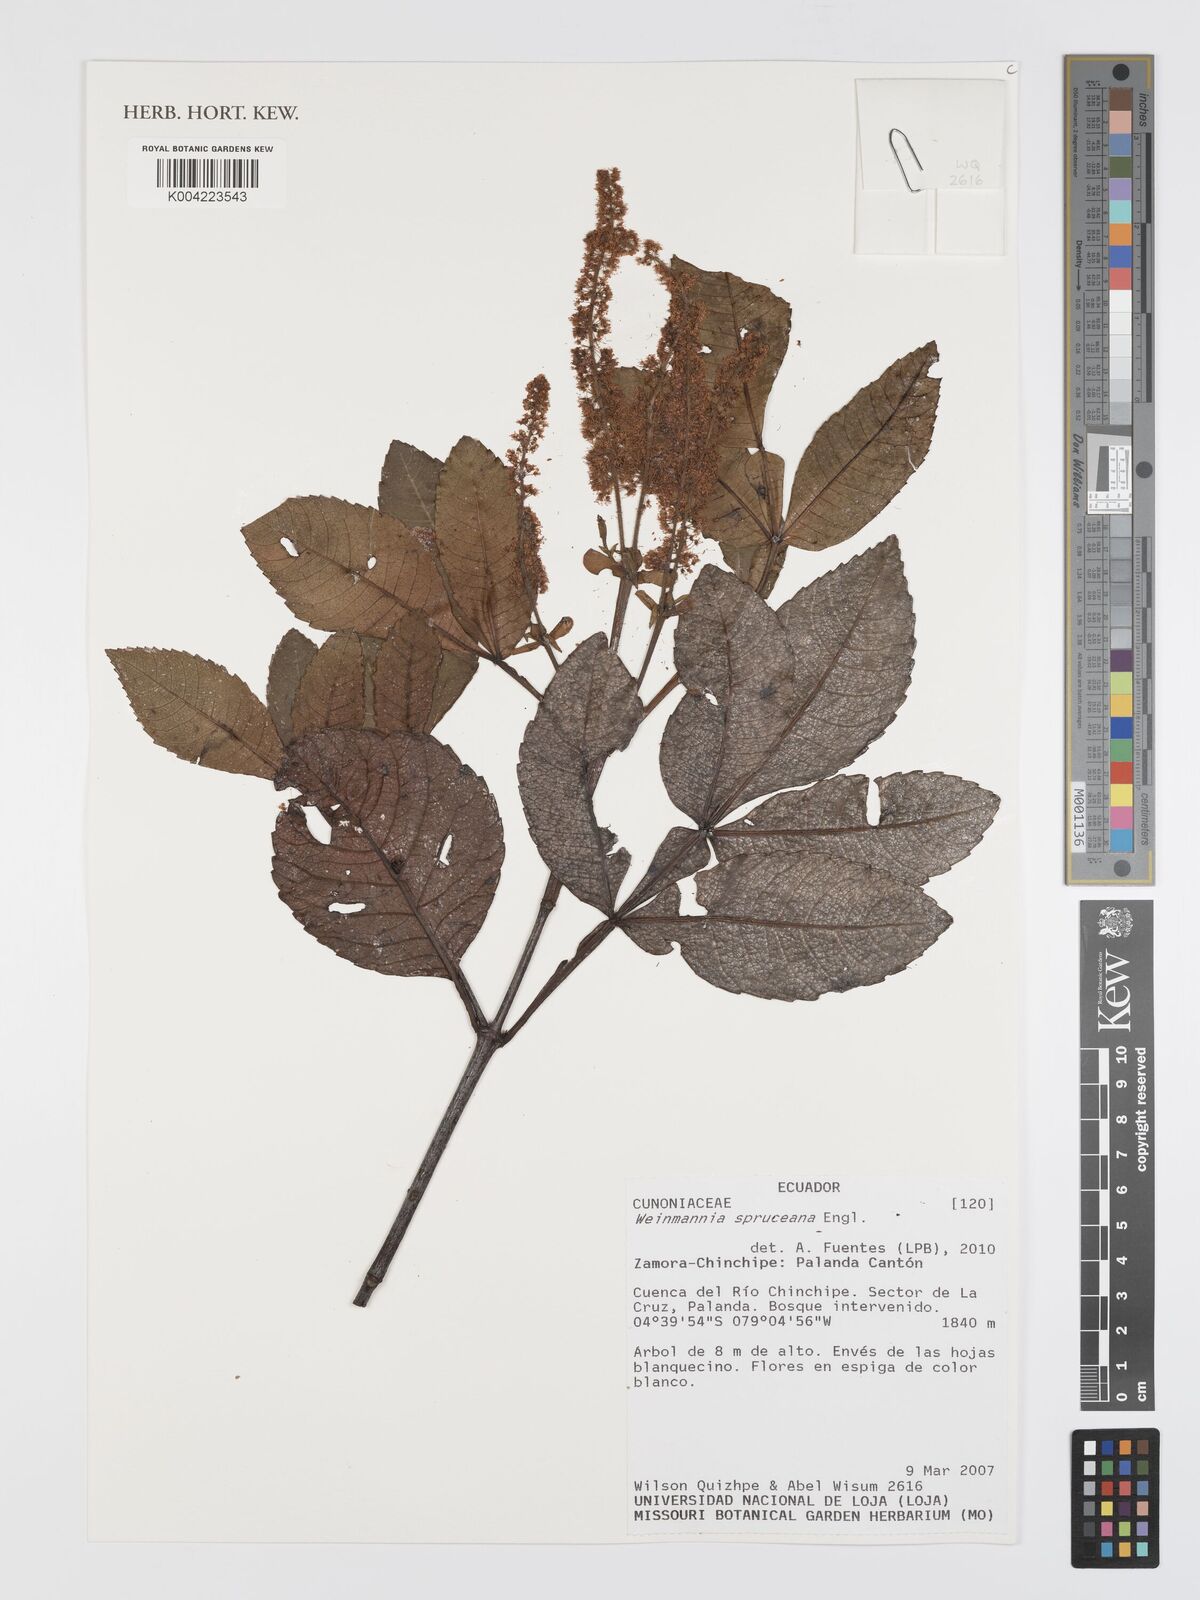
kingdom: Plantae
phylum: Tracheophyta
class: Magnoliopsida
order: Oxalidales
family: Cunoniaceae
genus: Weinmannia
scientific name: Weinmannia spruceana
